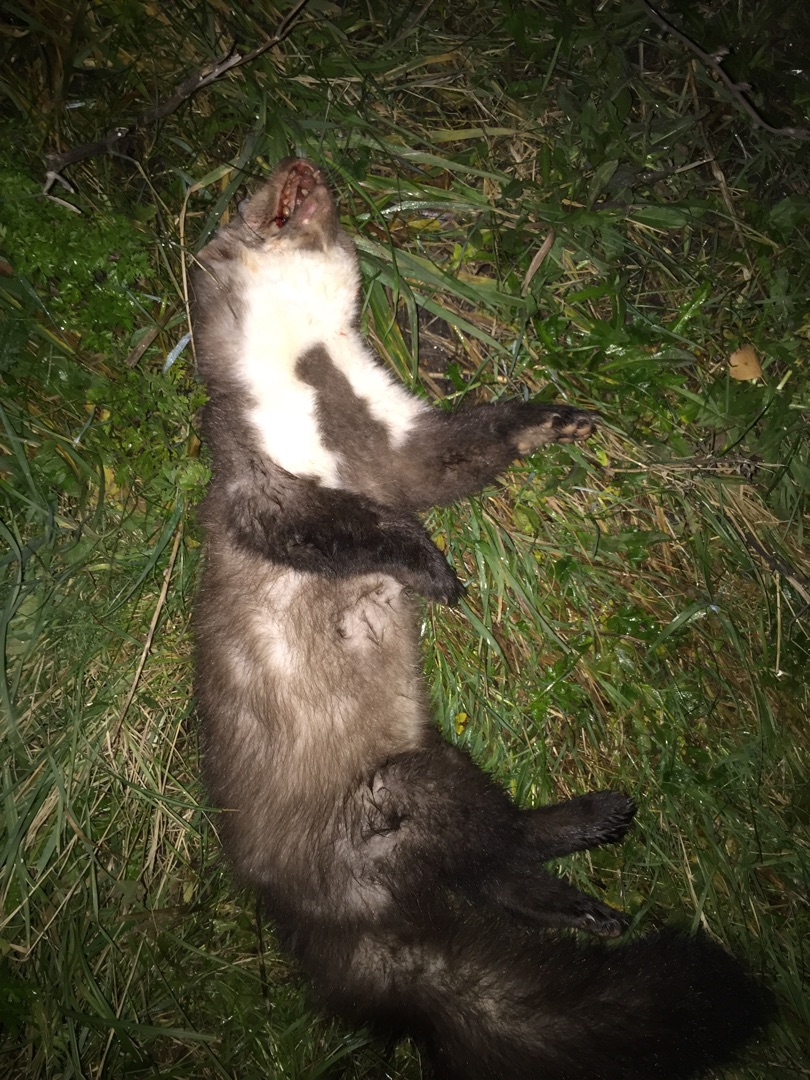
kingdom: Animalia
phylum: Chordata
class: Mammalia
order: Carnivora
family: Mustelidae
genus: Martes
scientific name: Martes foina
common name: Husmår
